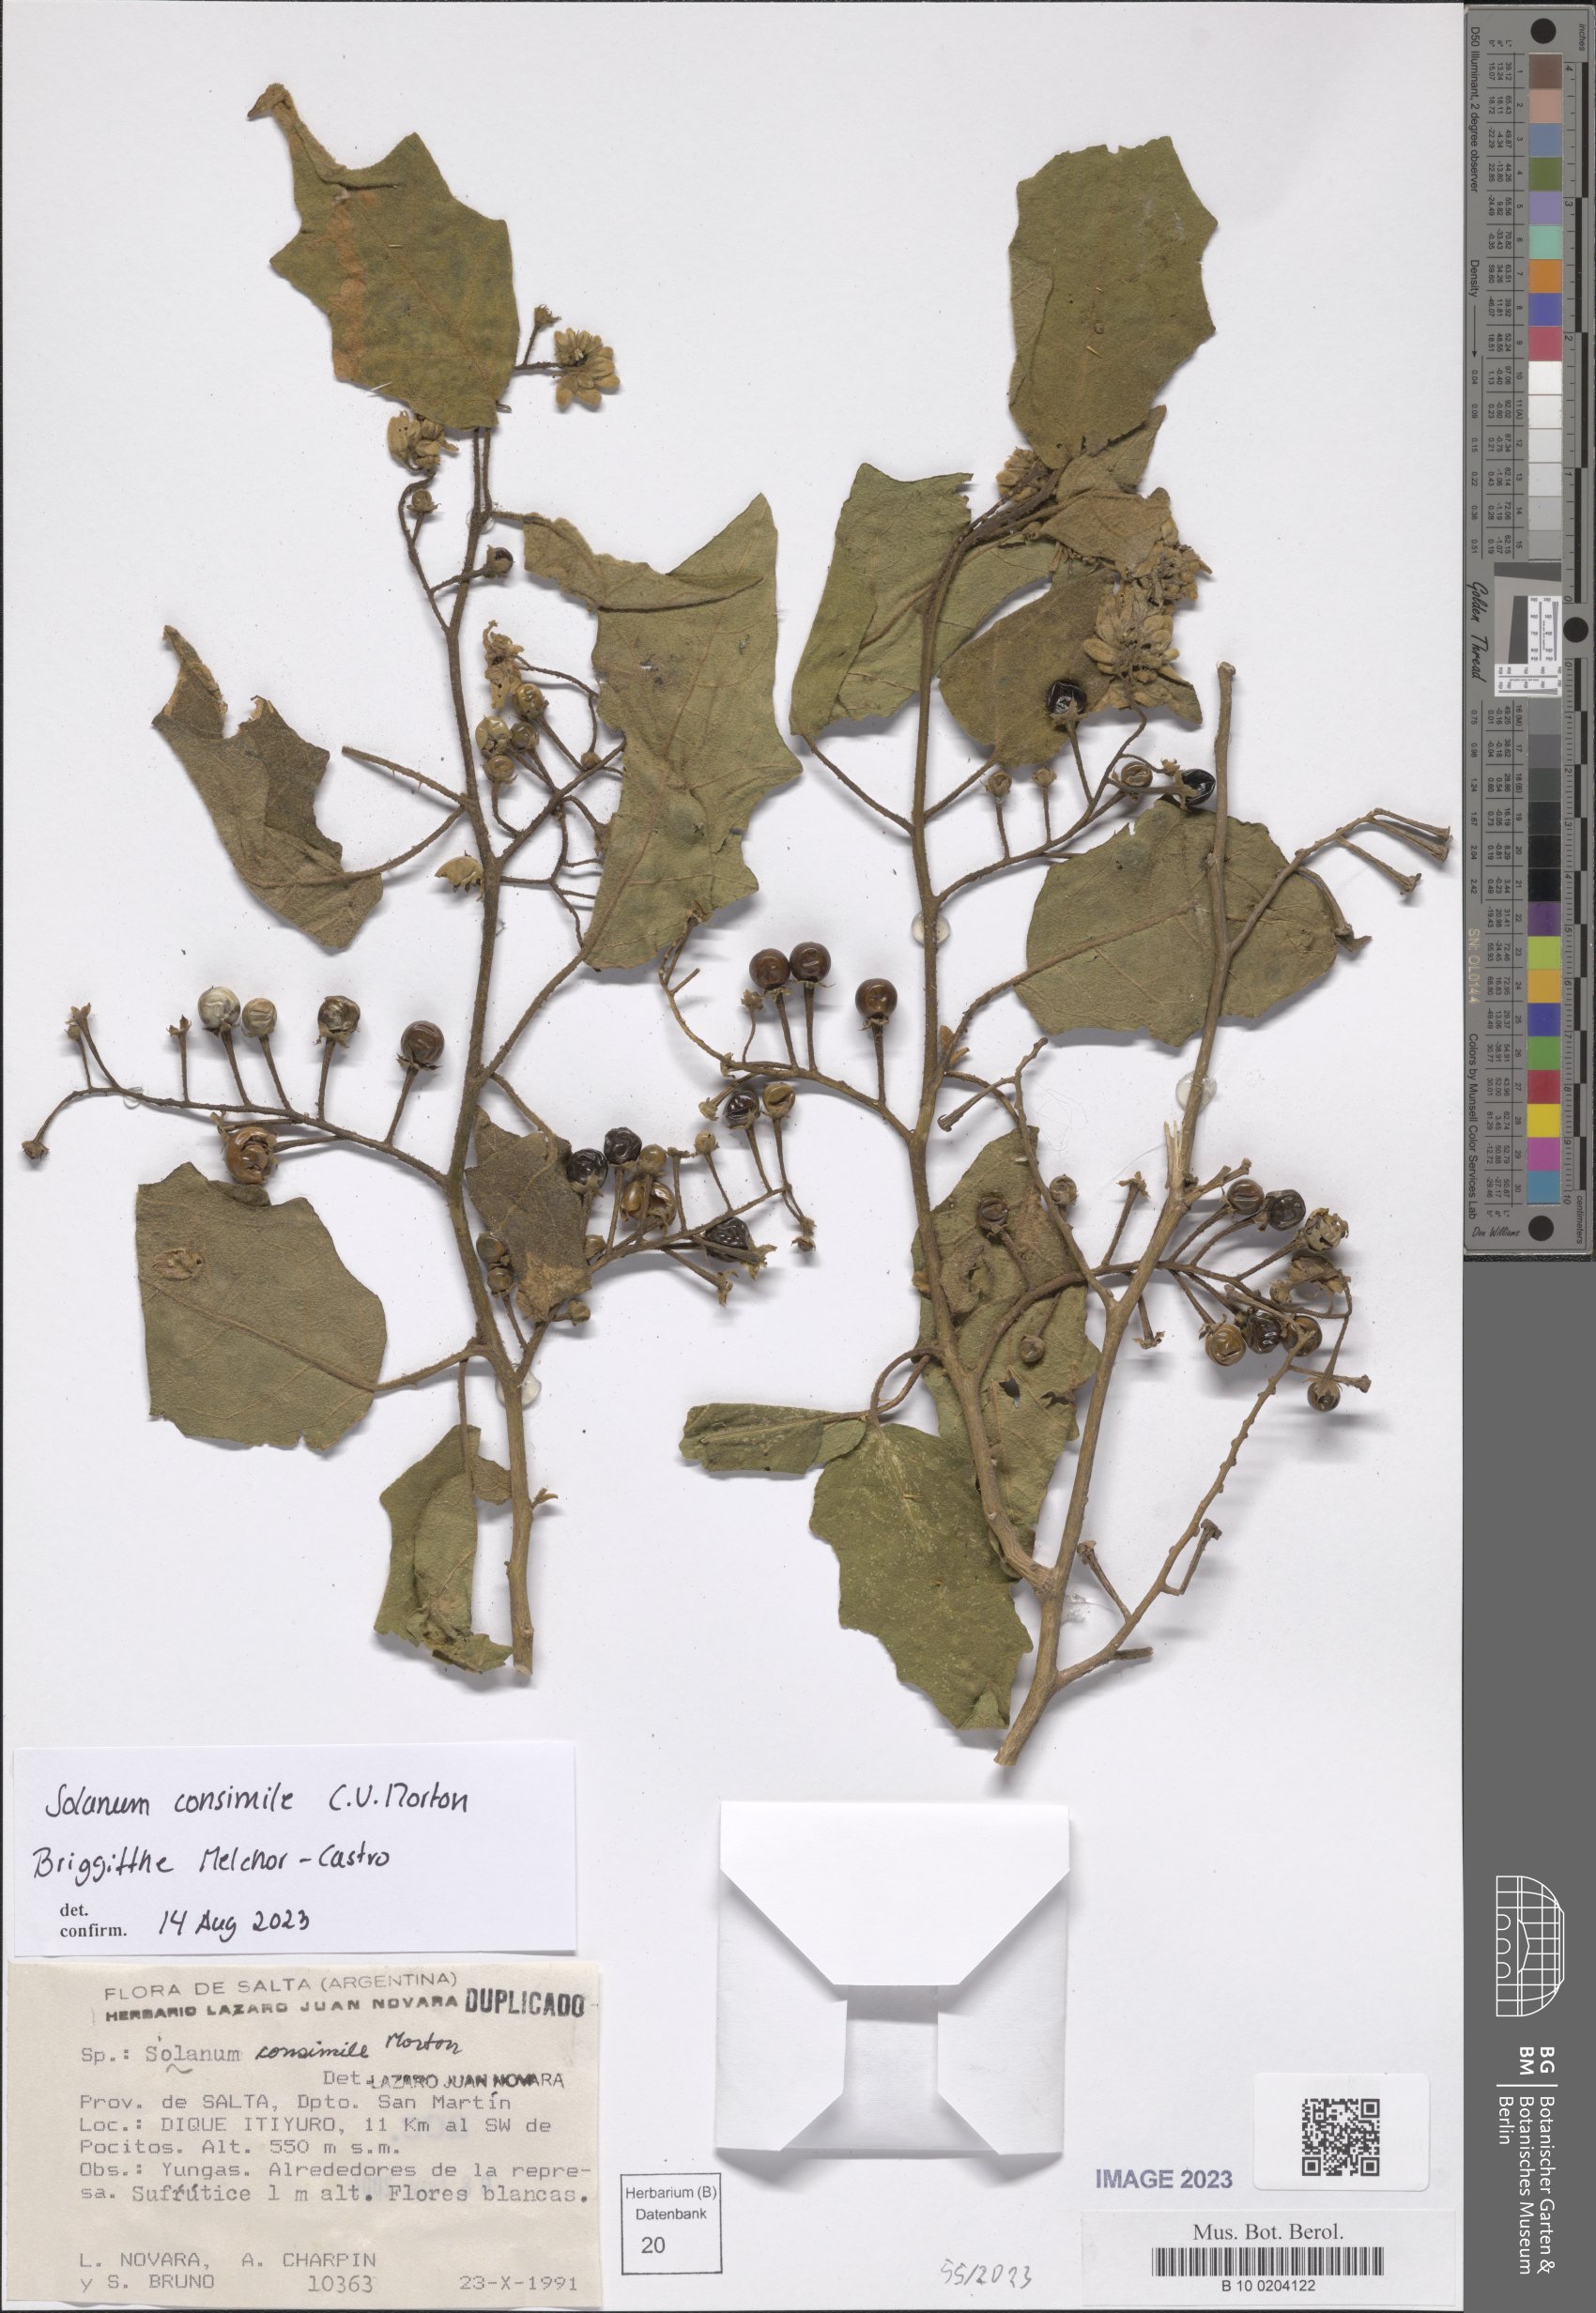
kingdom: Plantae
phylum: Tracheophyta
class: Magnoliopsida
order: Solanales
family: Solanaceae
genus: Solanum
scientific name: Solanum consimile
